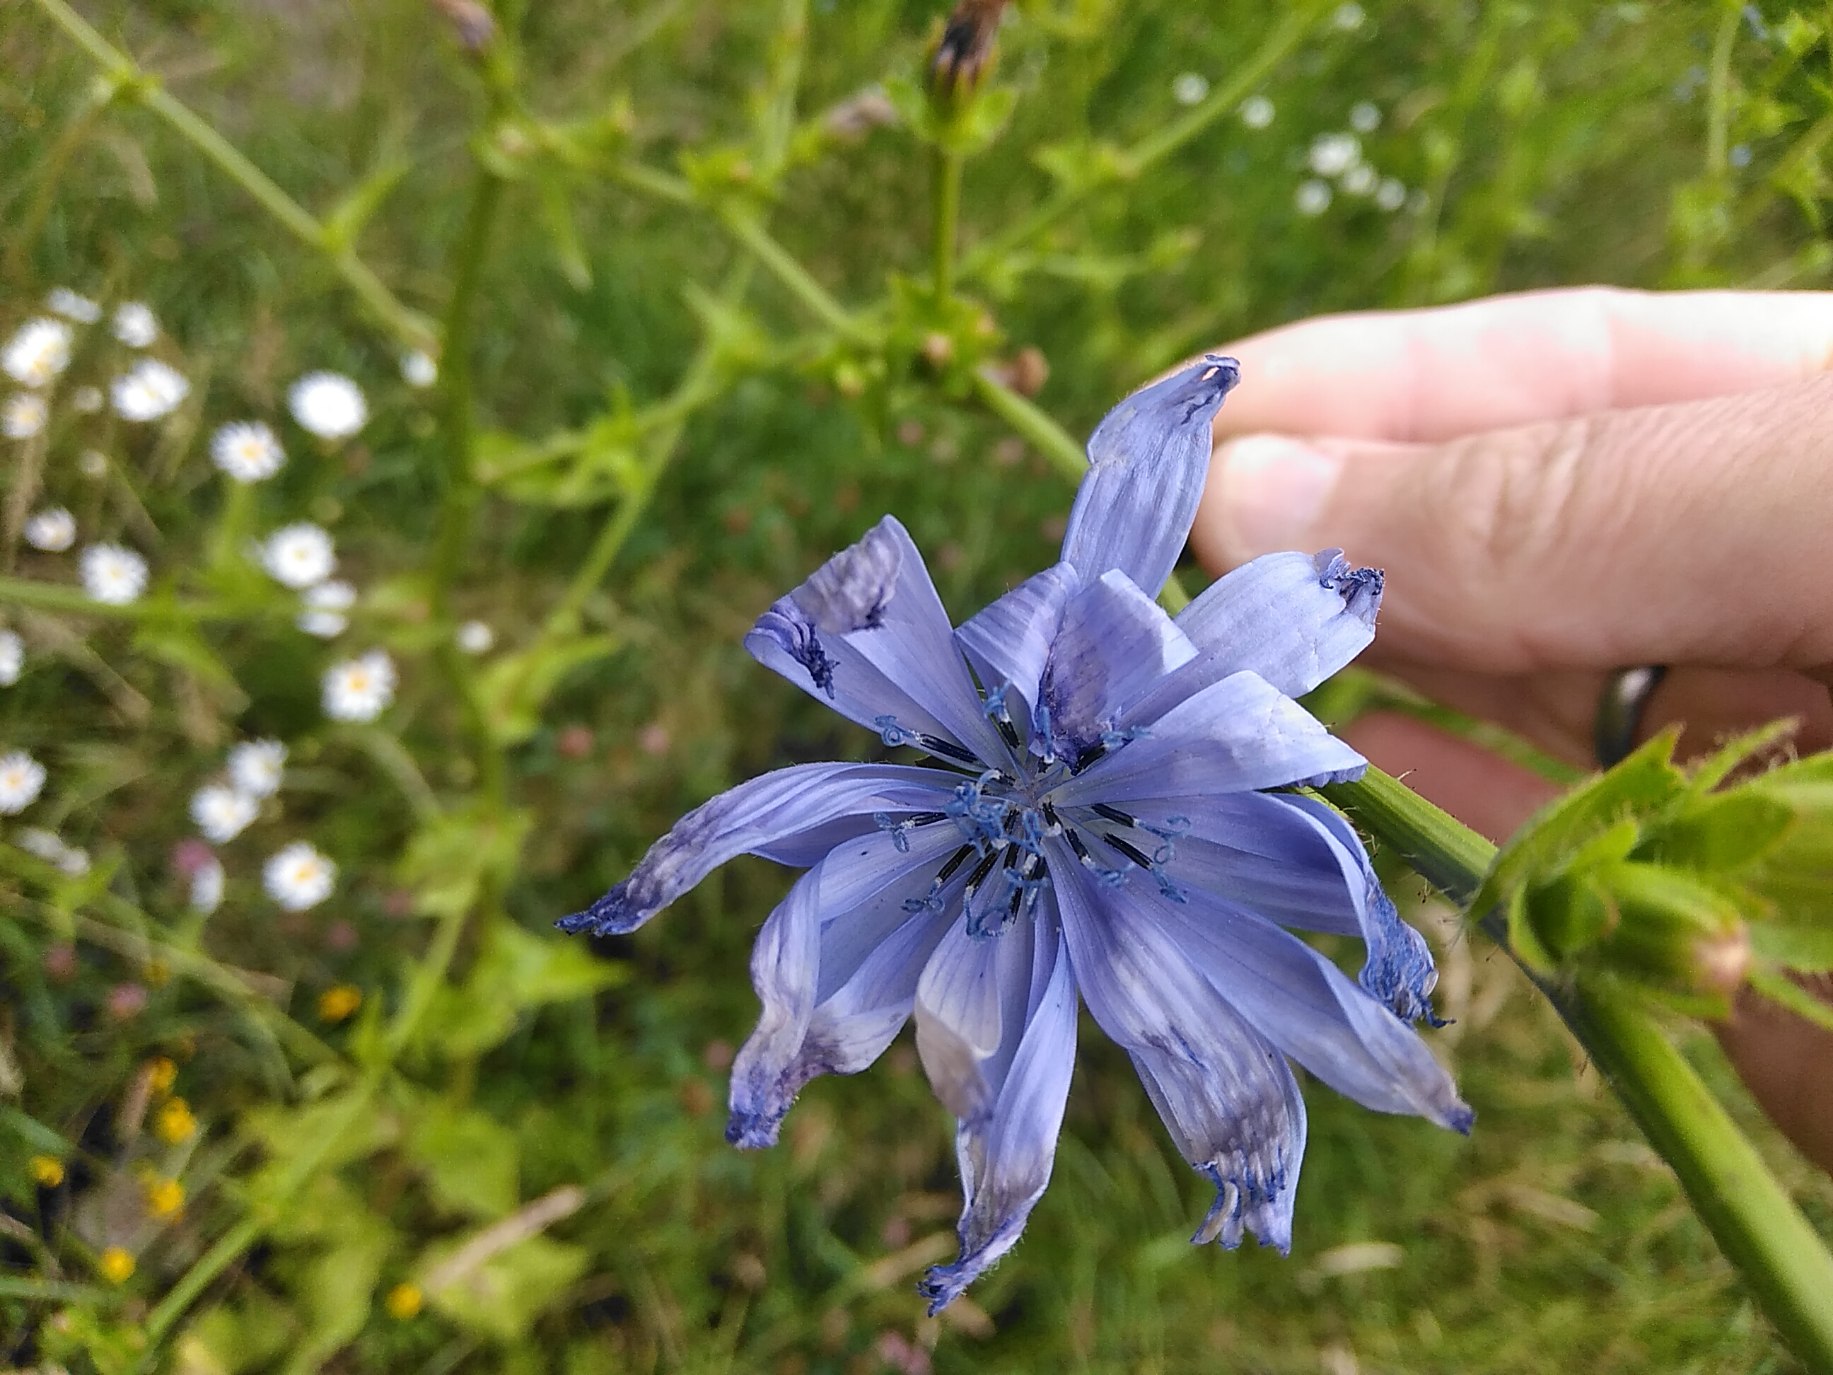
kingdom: Plantae
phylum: Tracheophyta
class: Magnoliopsida
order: Asterales
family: Asteraceae
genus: Cichorium
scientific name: Cichorium intybus
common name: Cikorie
